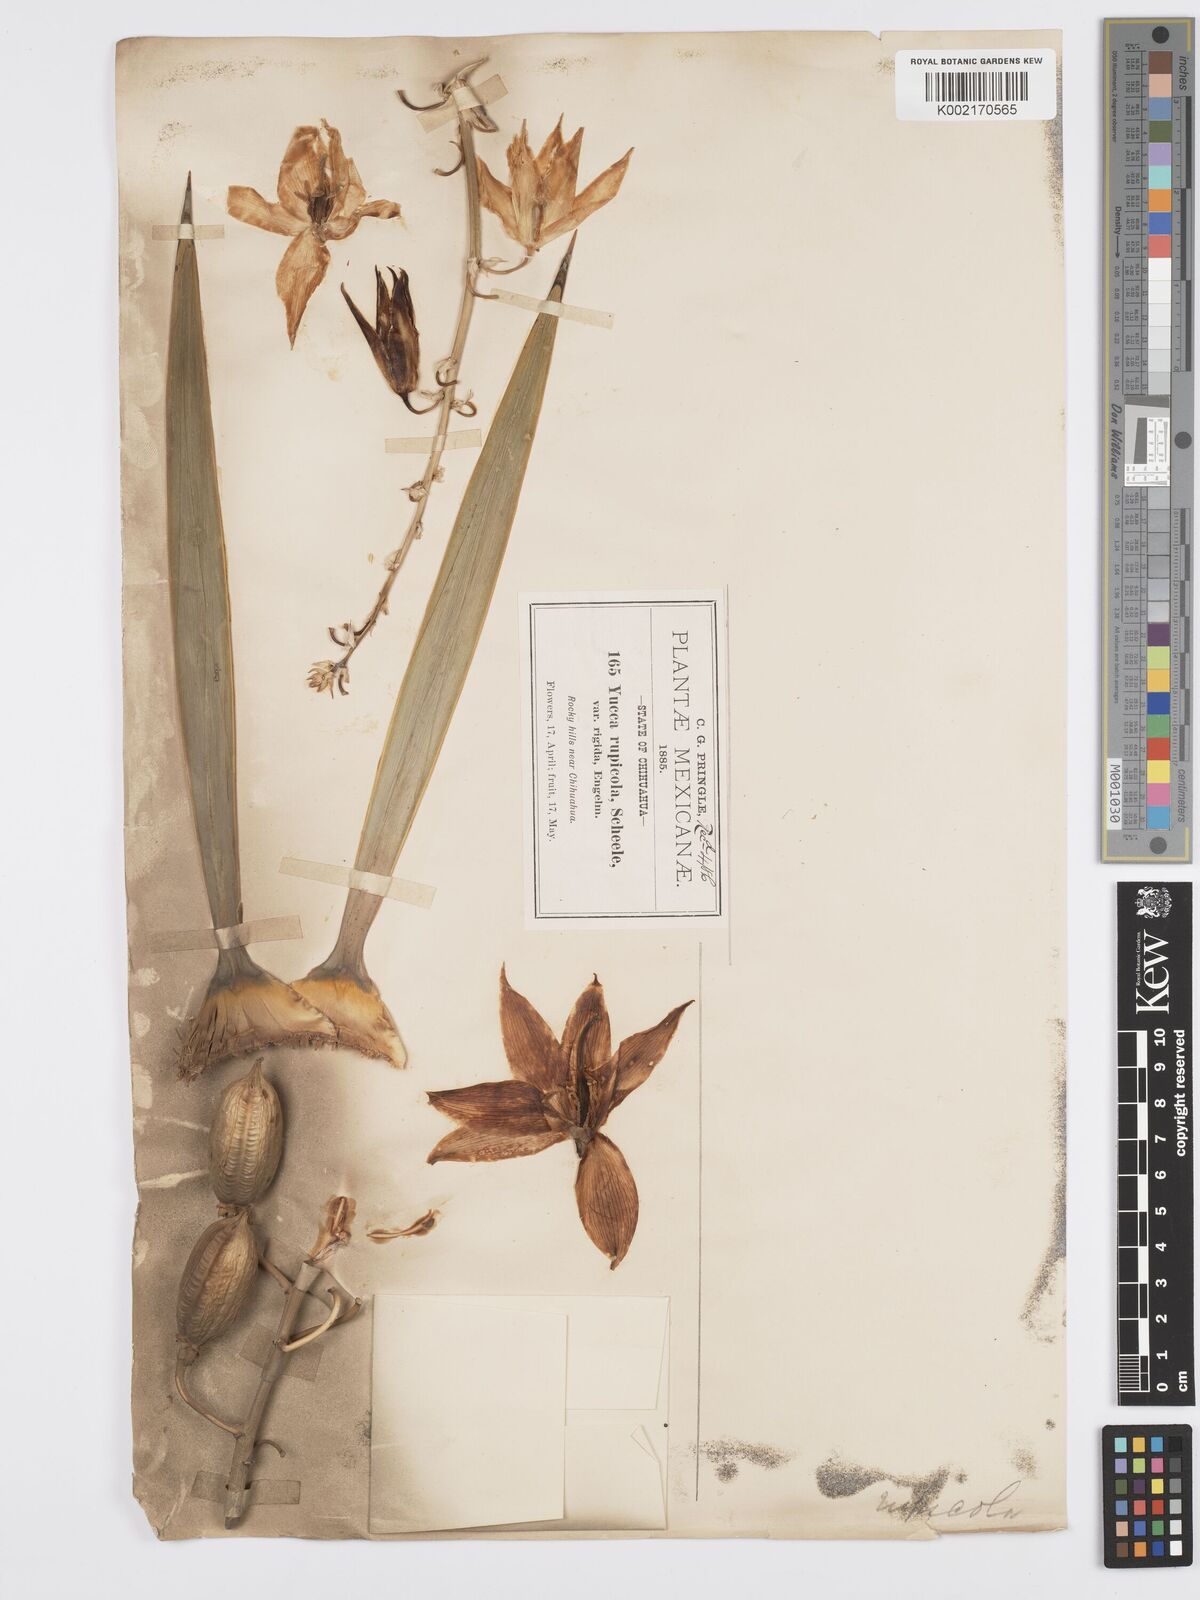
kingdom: Plantae
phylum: Tracheophyta
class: Liliopsida
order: Asparagales
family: Asparagaceae
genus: Yucca
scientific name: Yucca luminosa
